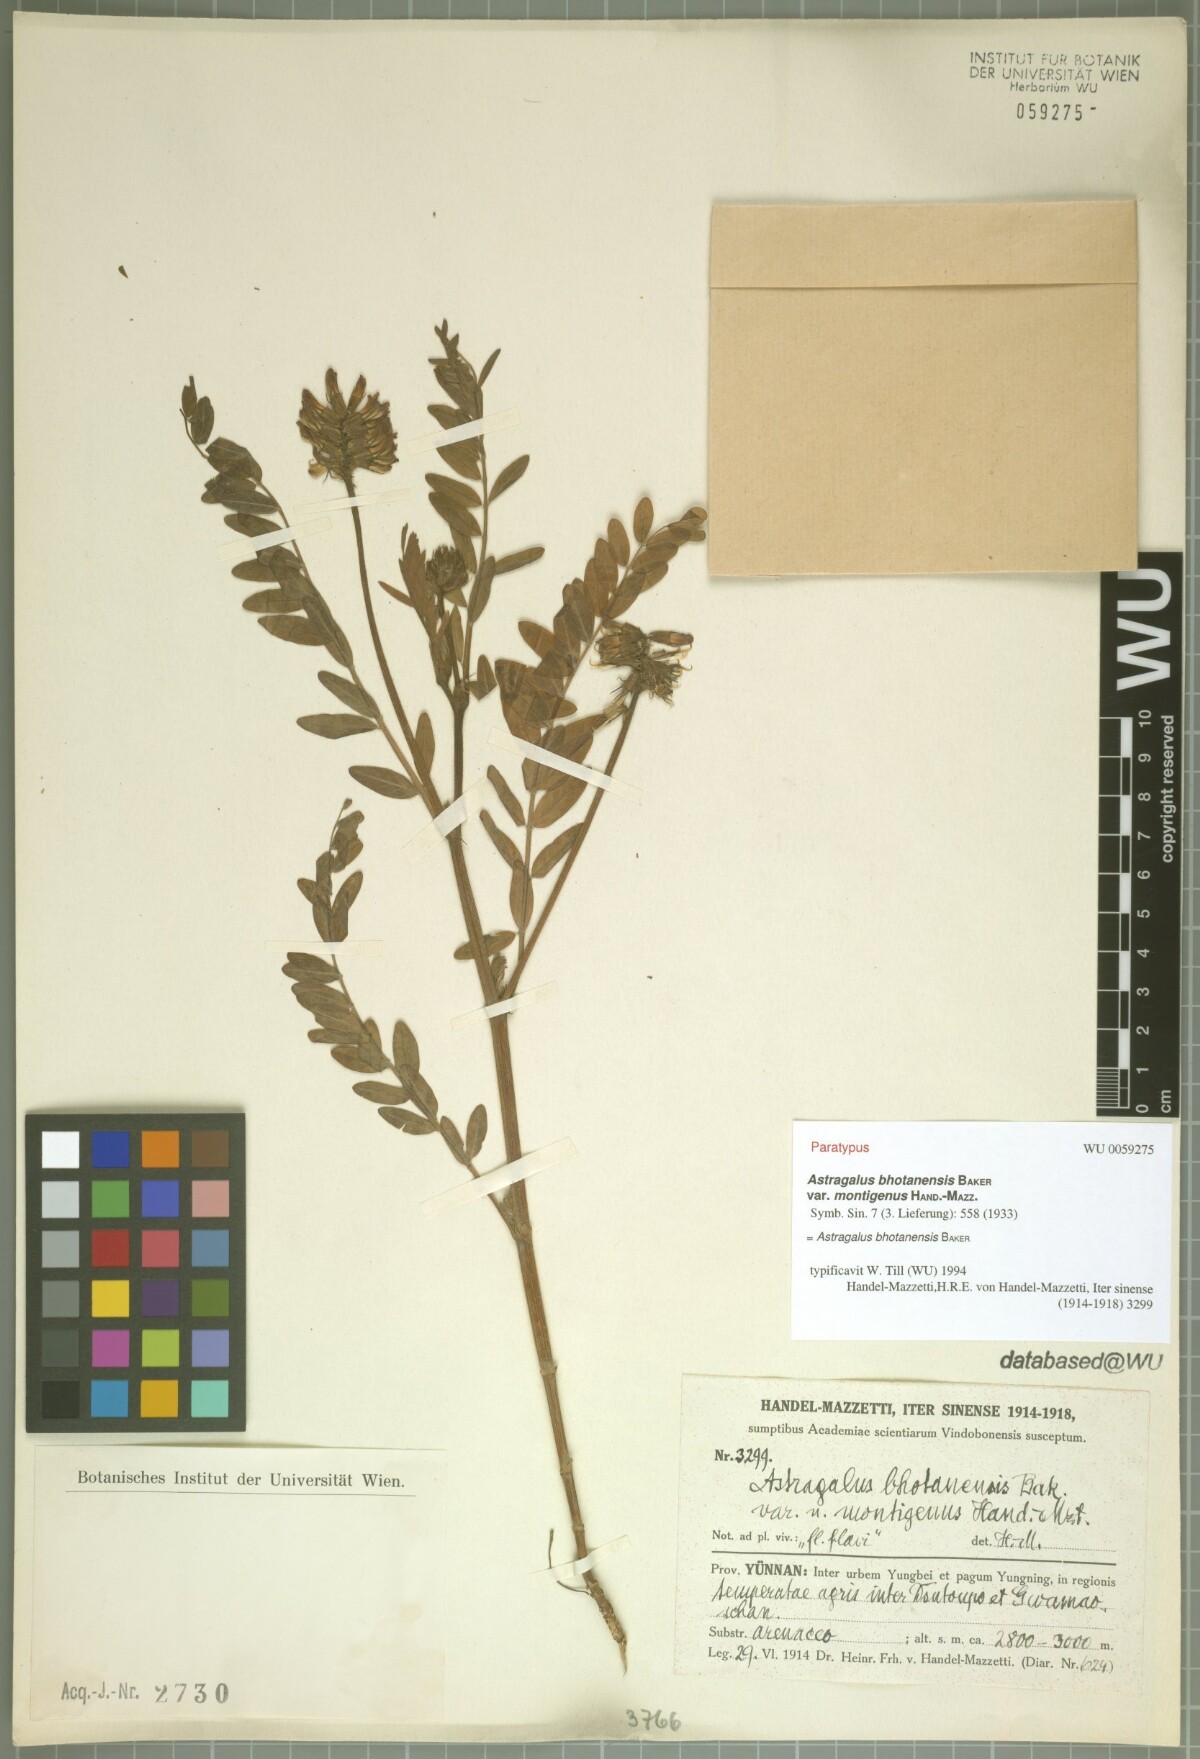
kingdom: Plantae
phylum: Tracheophyta
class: Magnoliopsida
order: Fabales
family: Fabaceae
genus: Astragalus
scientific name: Astragalus bhotanensis
